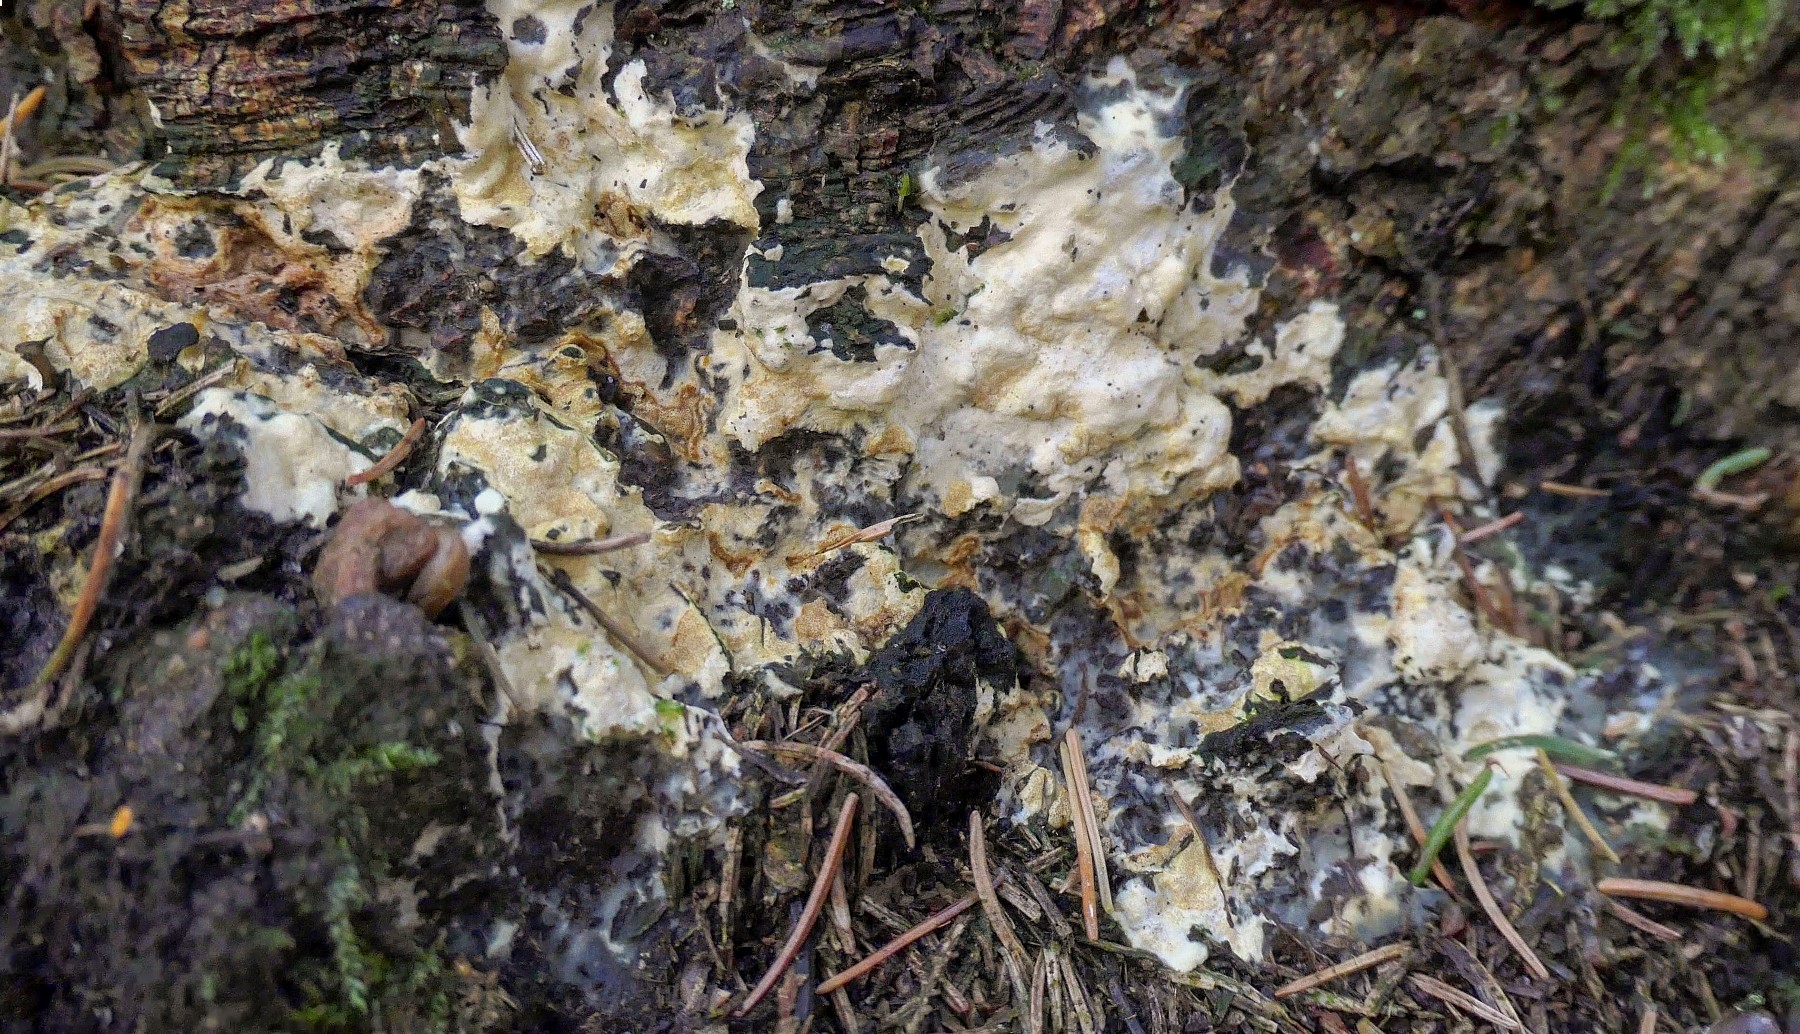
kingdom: Fungi
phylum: Ascomycota
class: Sordariomycetes
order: Hypocreales
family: Hypocreaceae
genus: Trichoderma
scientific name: Trichoderma citrinum
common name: udbredt kødkerne
